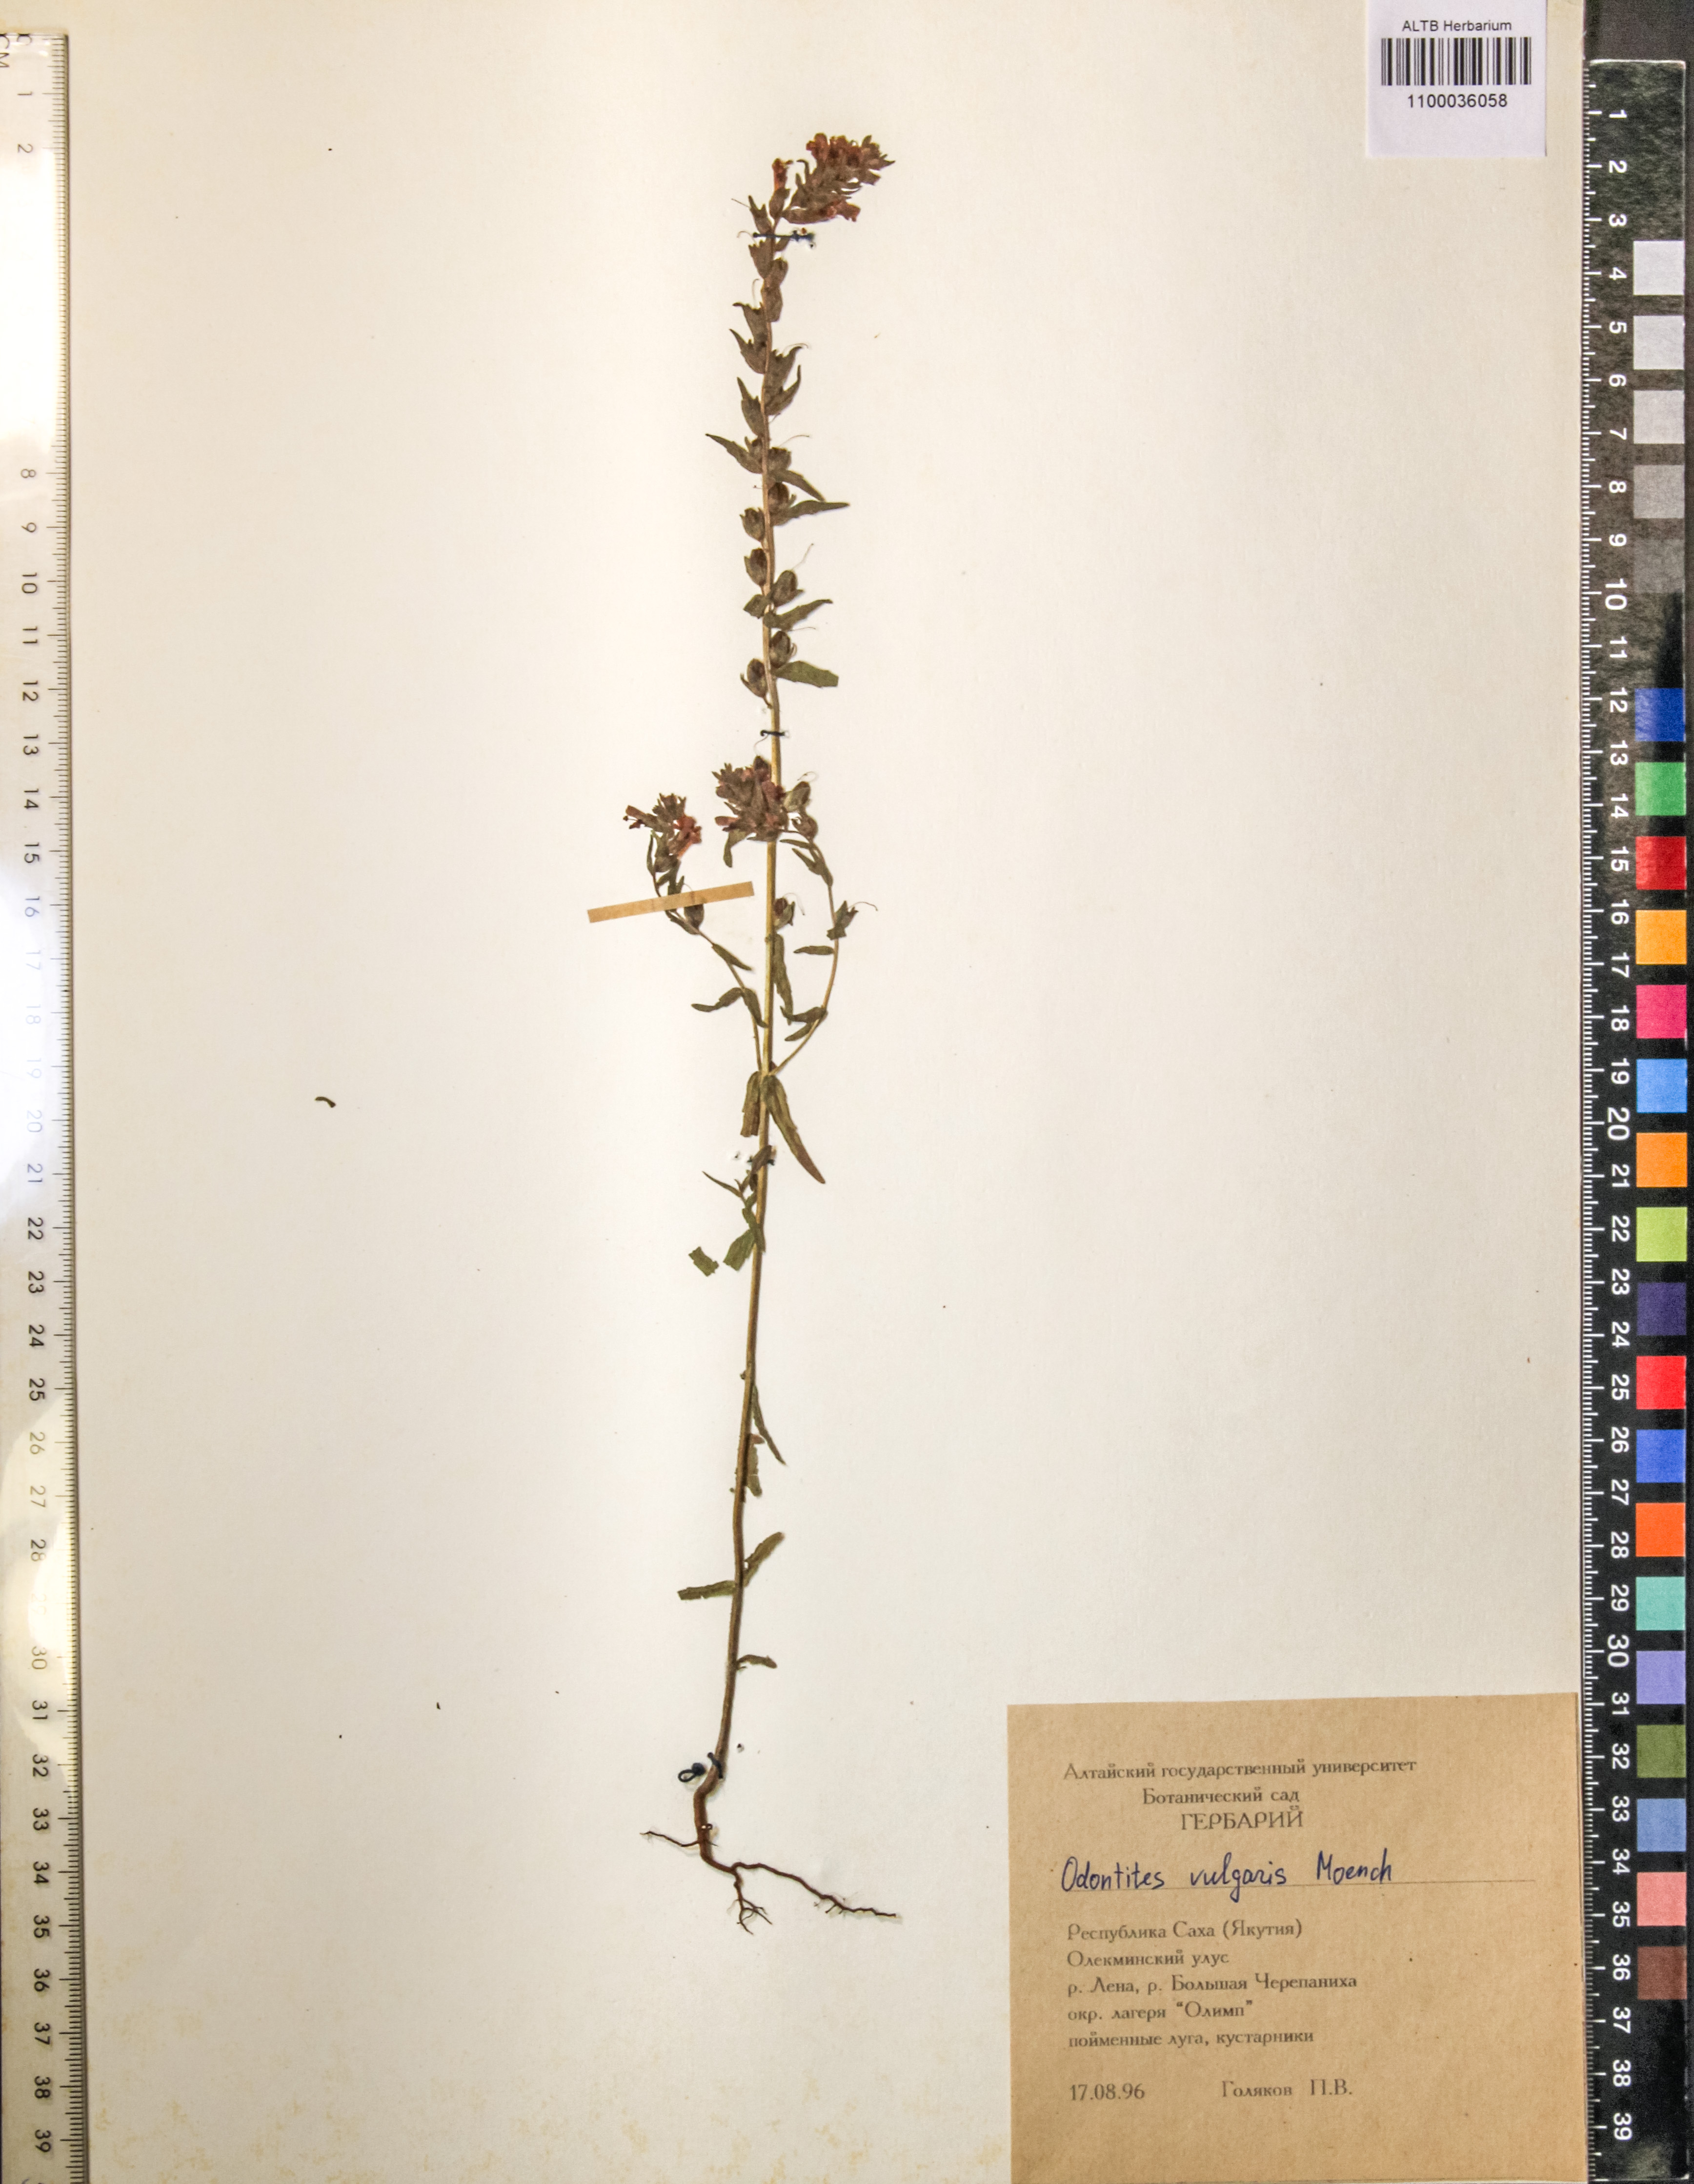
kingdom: Plantae
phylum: Tracheophyta
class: Magnoliopsida
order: Lamiales
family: Orobanchaceae
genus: Odontites
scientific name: Odontites vulgaris
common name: Broomrape
